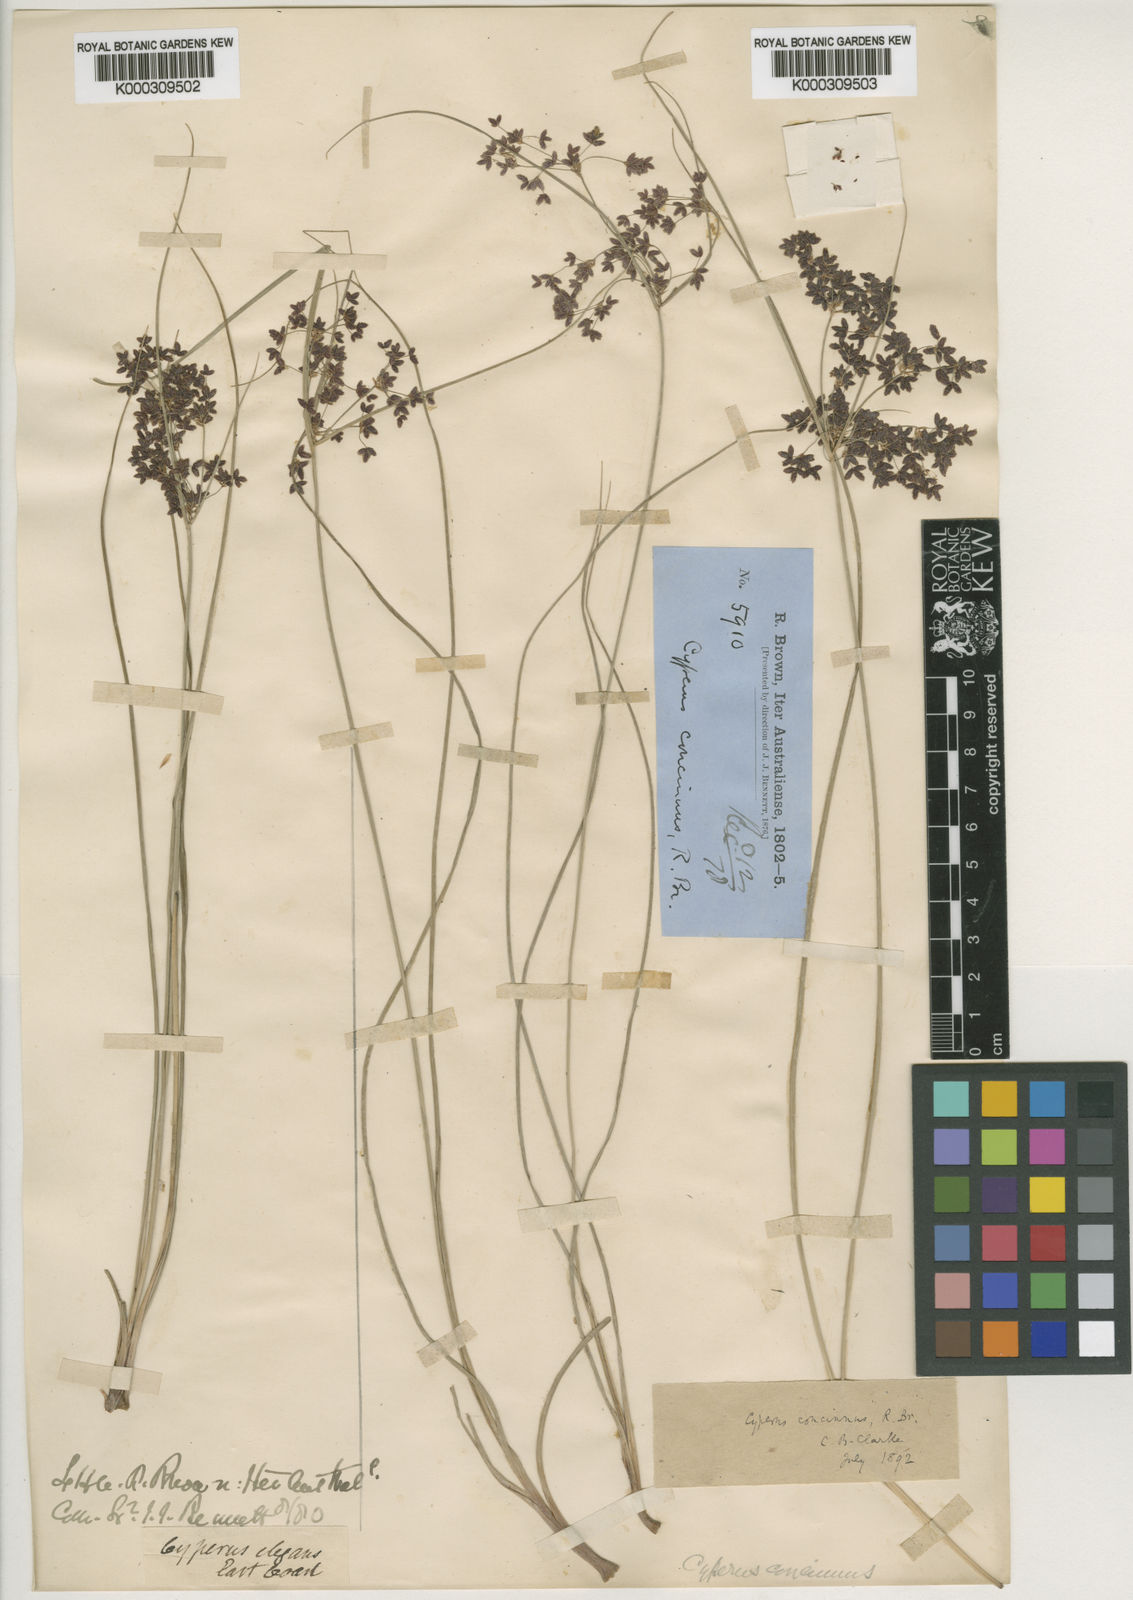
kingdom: Plantae
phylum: Tracheophyta
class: Liliopsida
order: Poales
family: Cyperaceae
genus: Cyperus
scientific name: Cyperus concinnus
